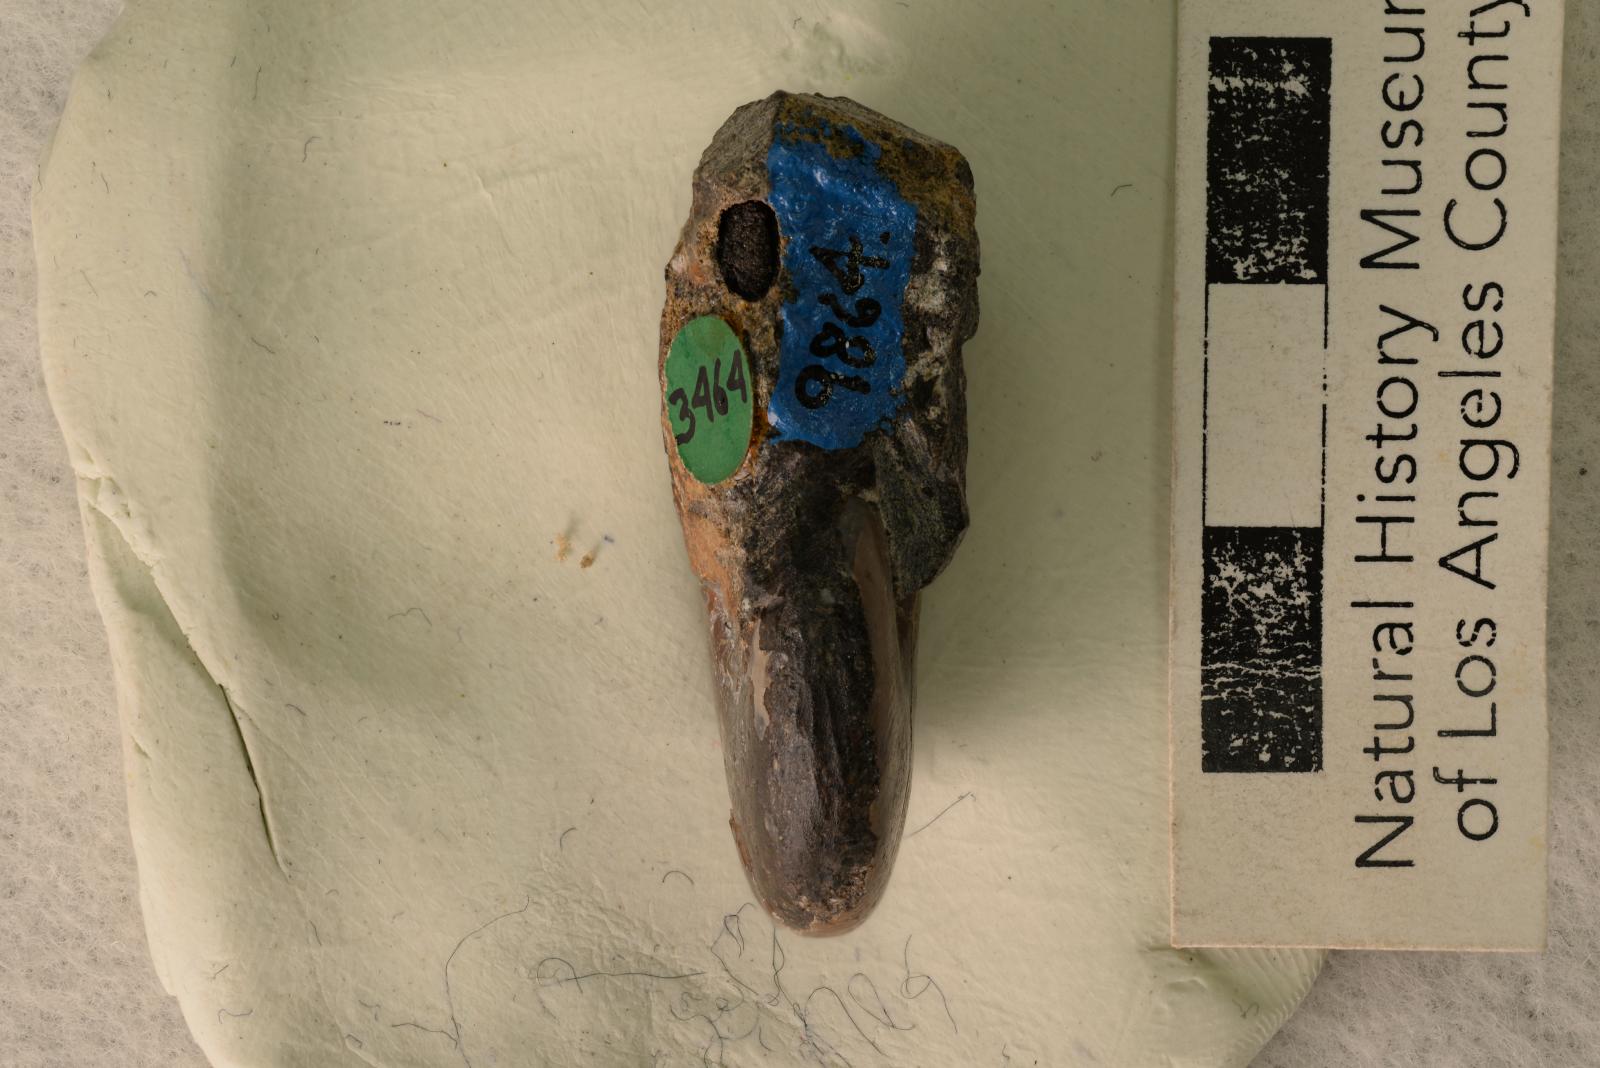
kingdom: Animalia
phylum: Mollusca
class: Cephalopoda
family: Desmoceratidae
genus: Desmoceras
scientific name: Desmoceras barryae
